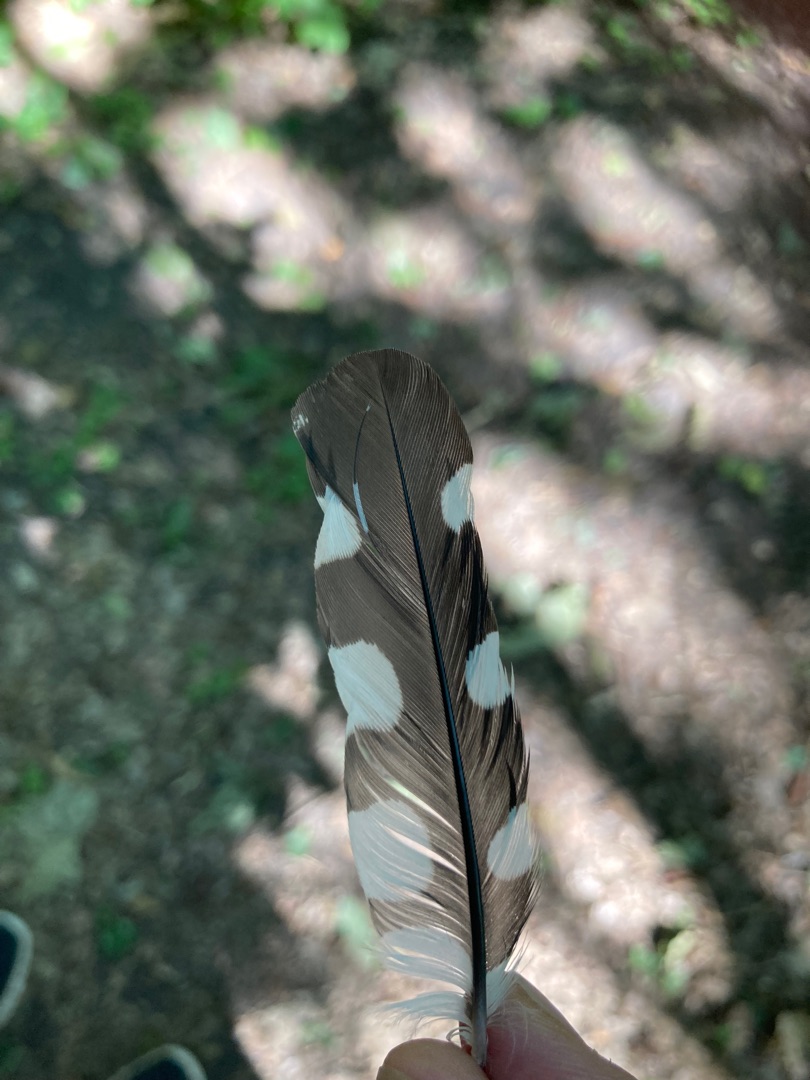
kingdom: Animalia
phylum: Chordata
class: Aves
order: Piciformes
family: Picidae
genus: Dendrocopos
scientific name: Dendrocopos major
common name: Stor flagspætte
